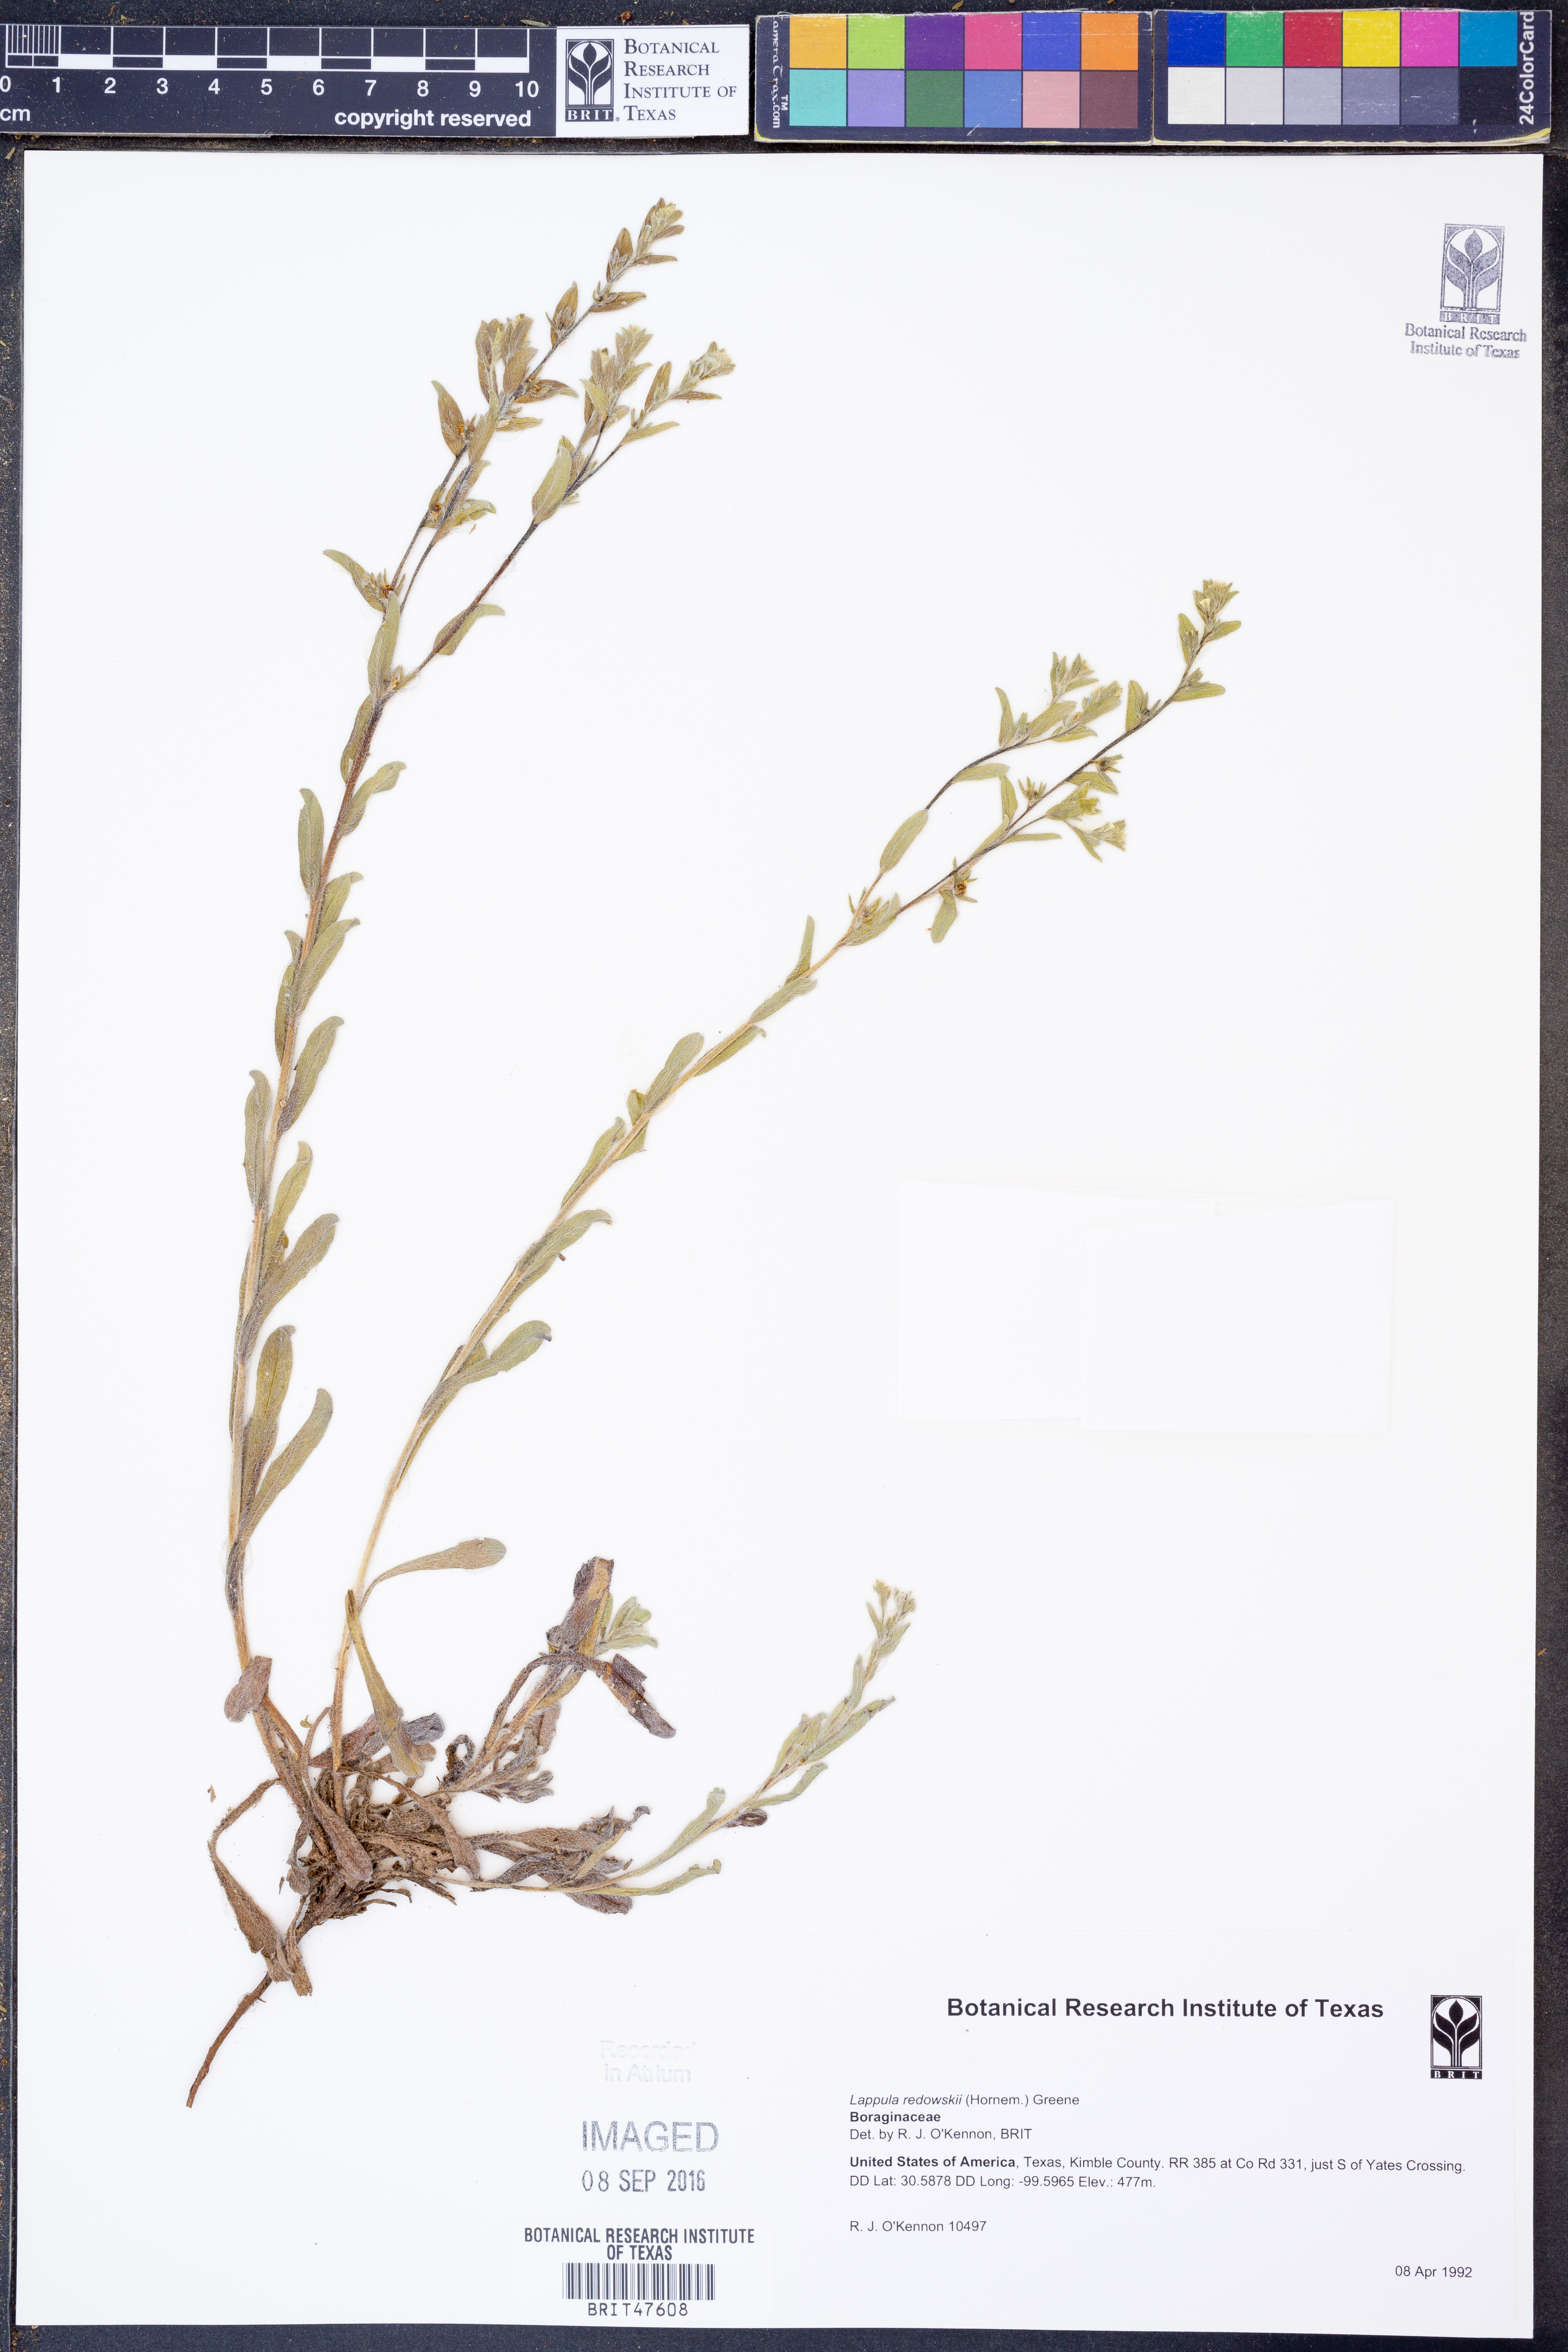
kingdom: Plantae
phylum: Tracheophyta
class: Magnoliopsida
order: Boraginales
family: Boraginaceae
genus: Lappula
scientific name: Lappula redowskii
